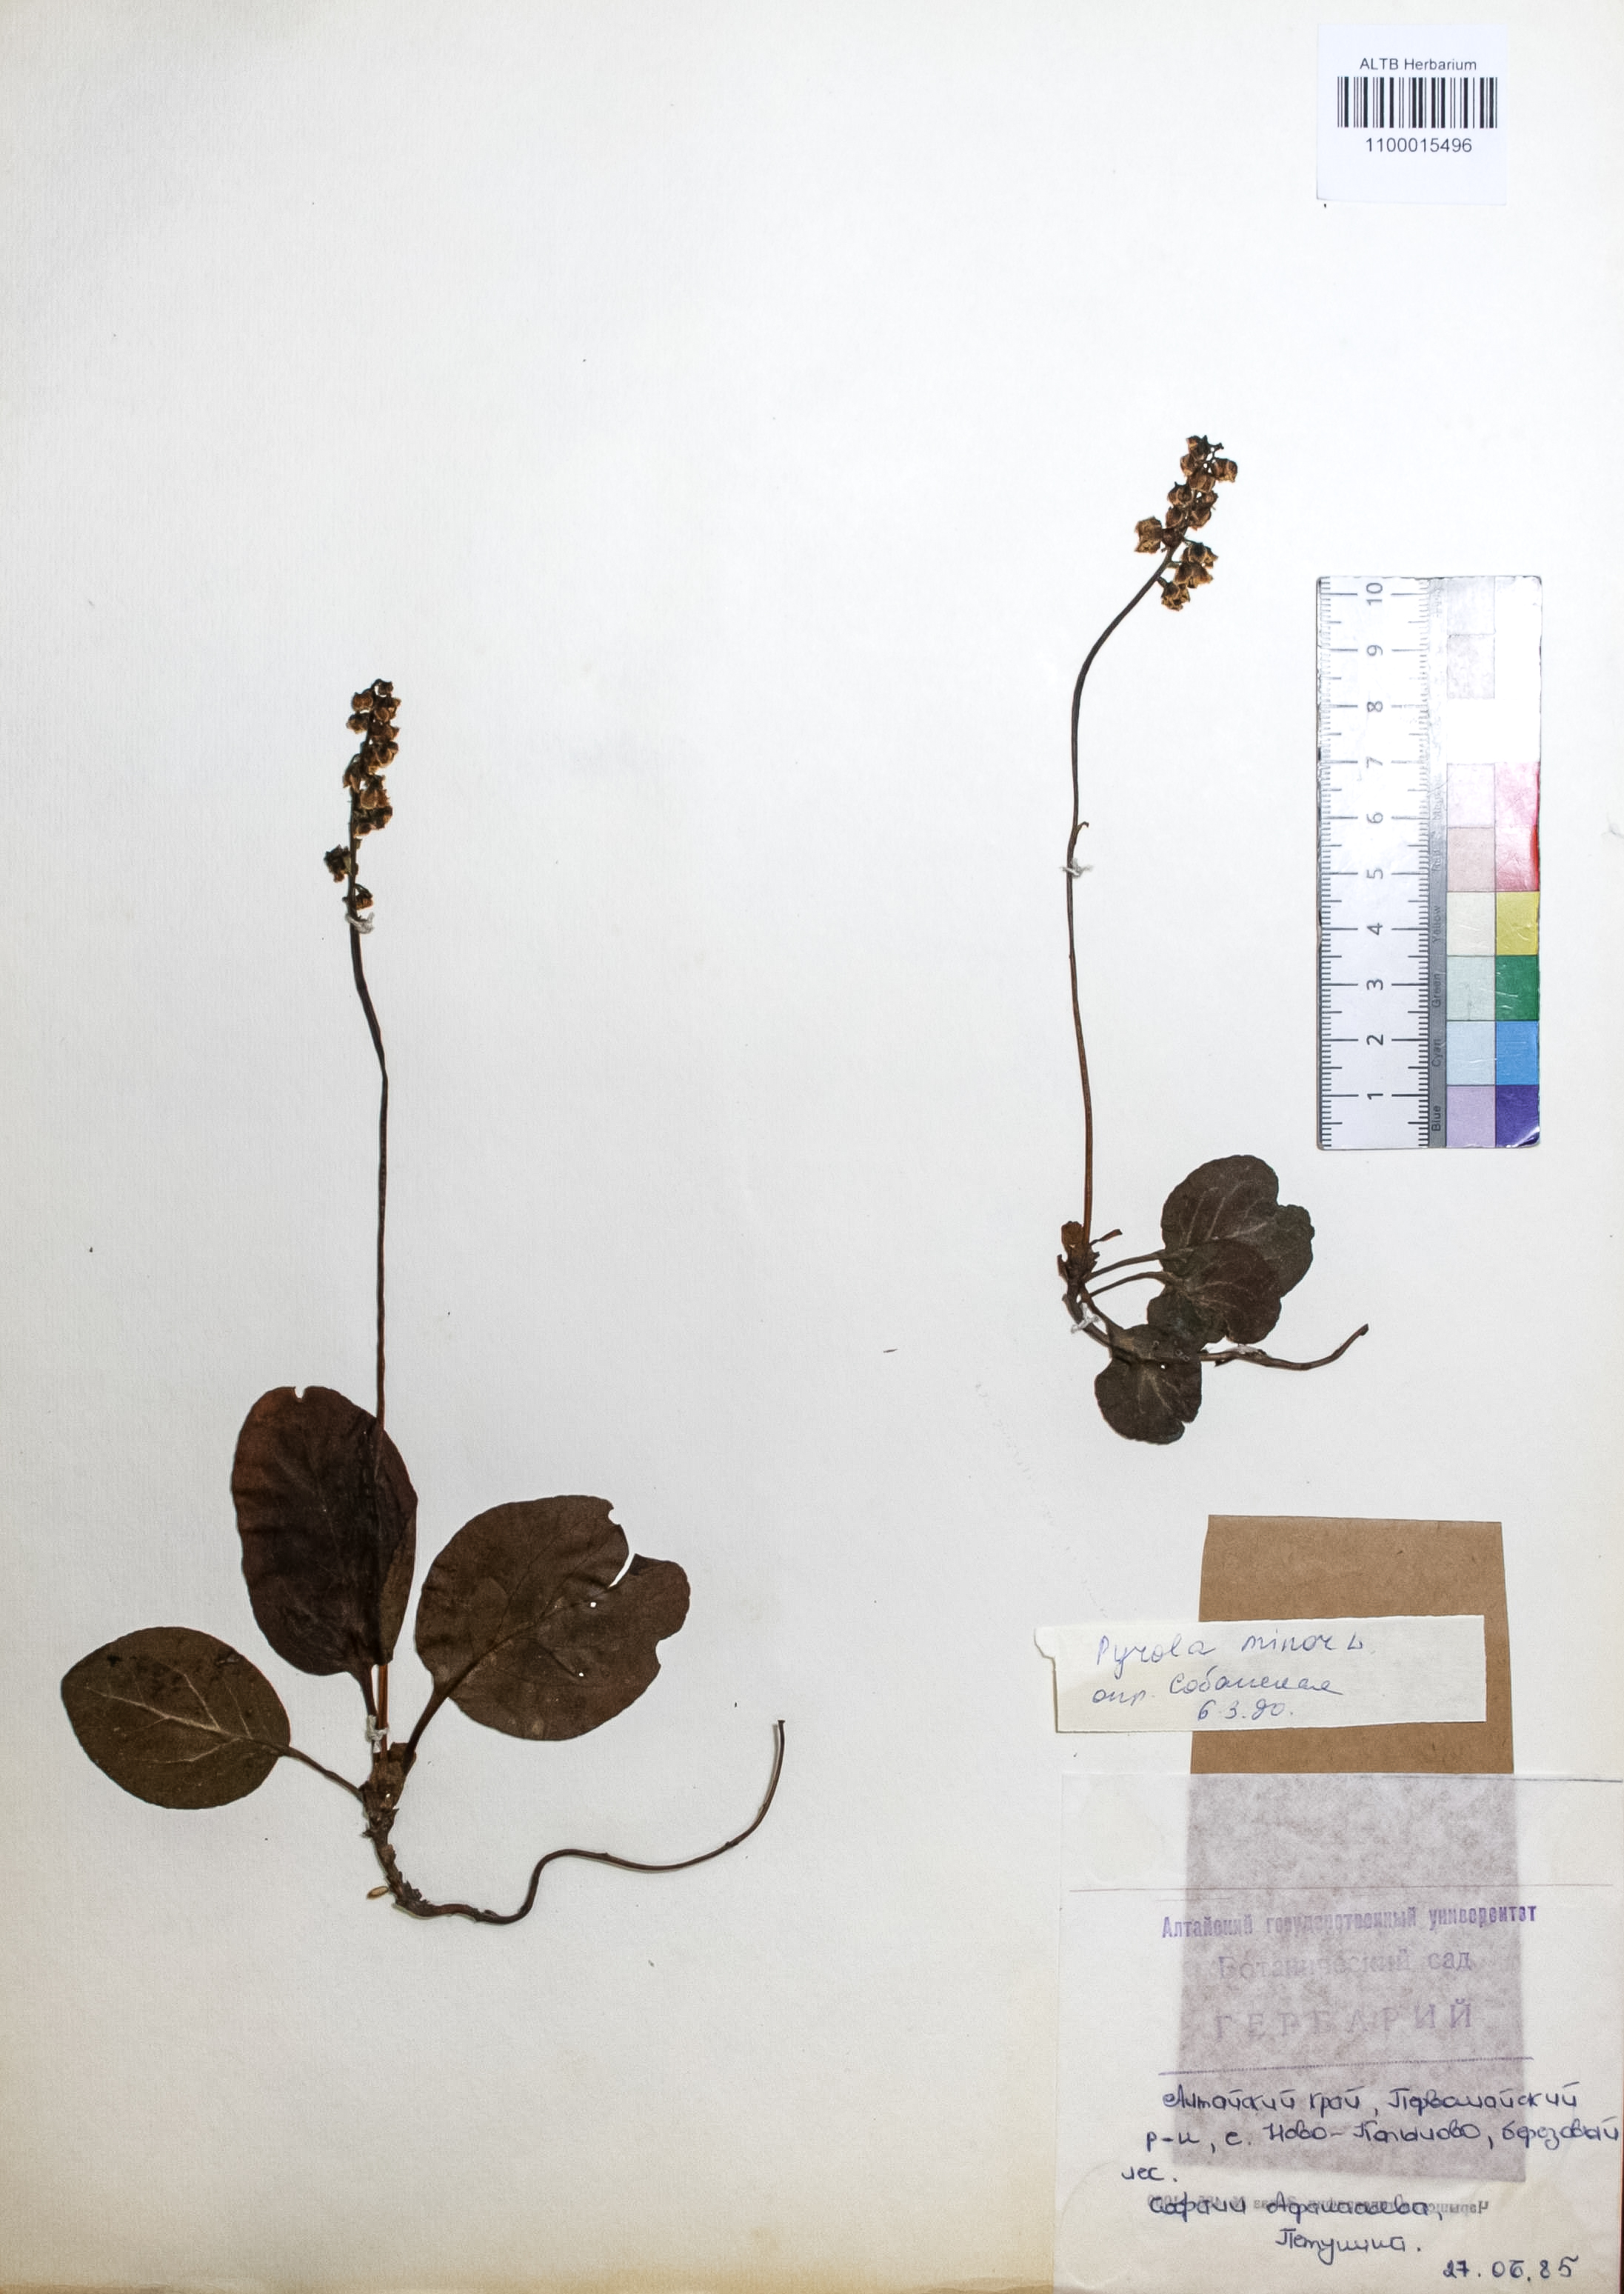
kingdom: Plantae
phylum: Tracheophyta
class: Magnoliopsida
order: Ericales
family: Ericaceae
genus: Pyrola
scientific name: Pyrola minor
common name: Common wintergreen
